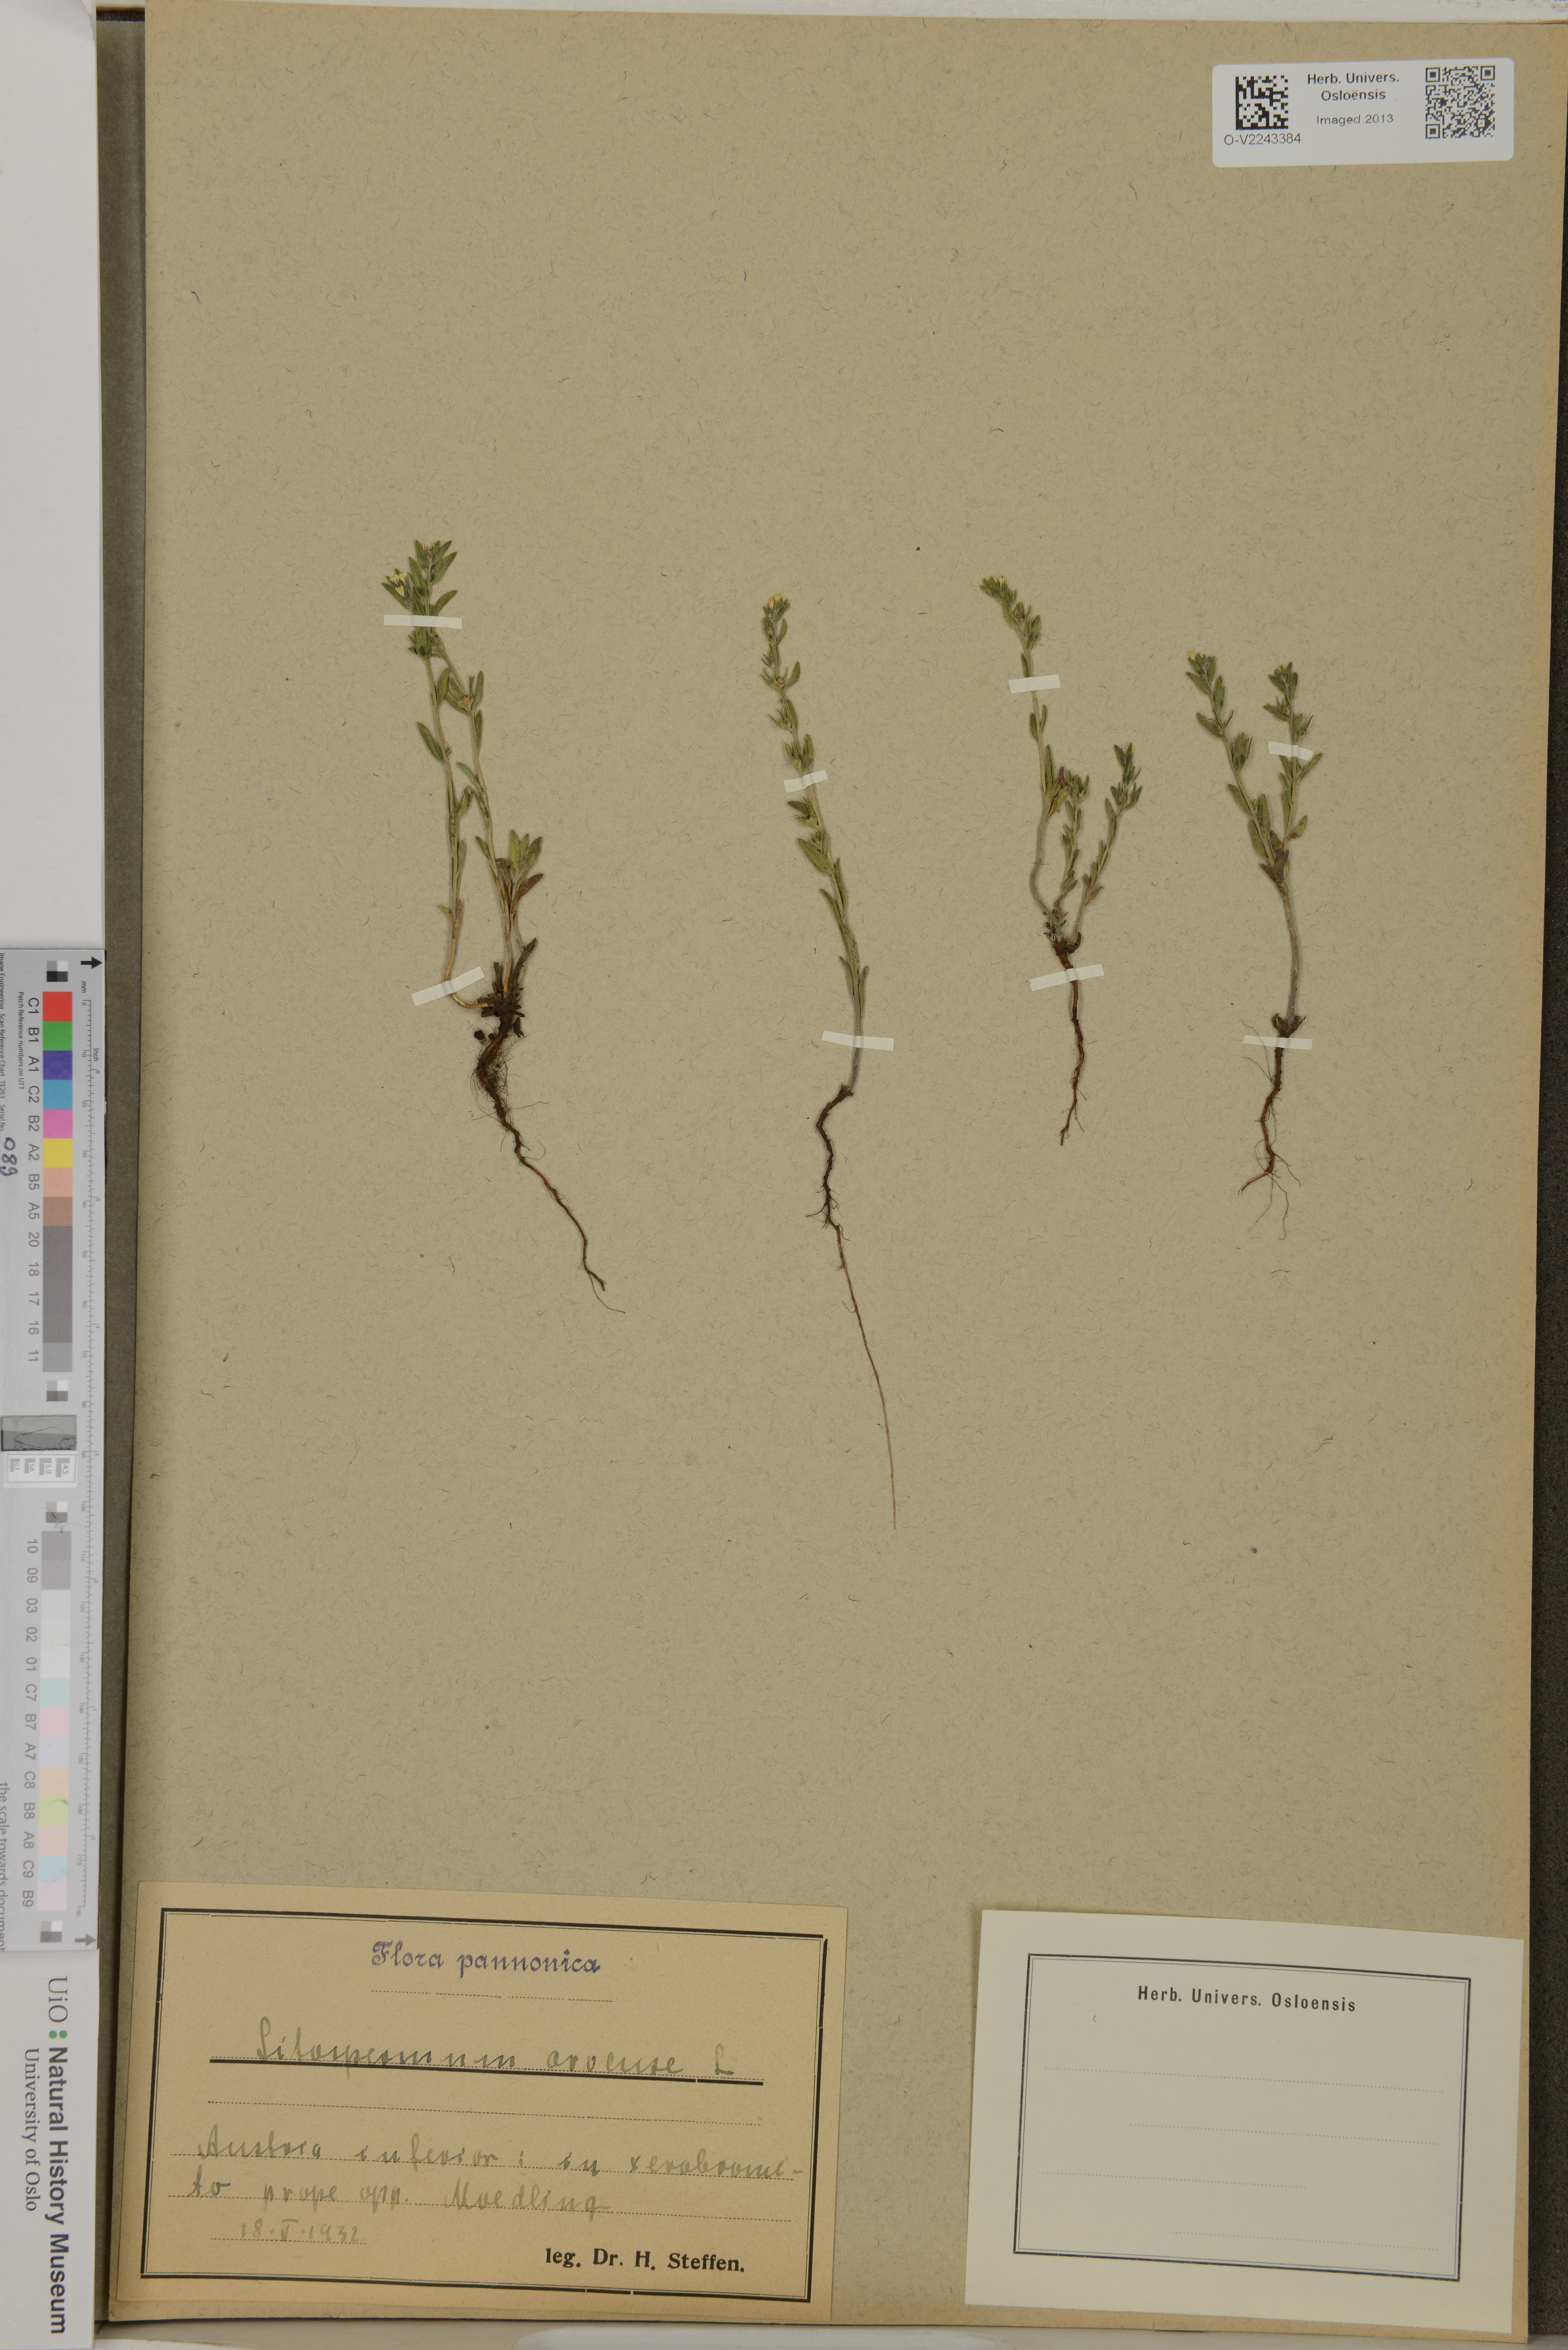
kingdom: Plantae
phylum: Tracheophyta
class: Magnoliopsida
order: Boraginales
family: Boraginaceae
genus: Buglossoides
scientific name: Buglossoides arvensis
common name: Corn gromwell
